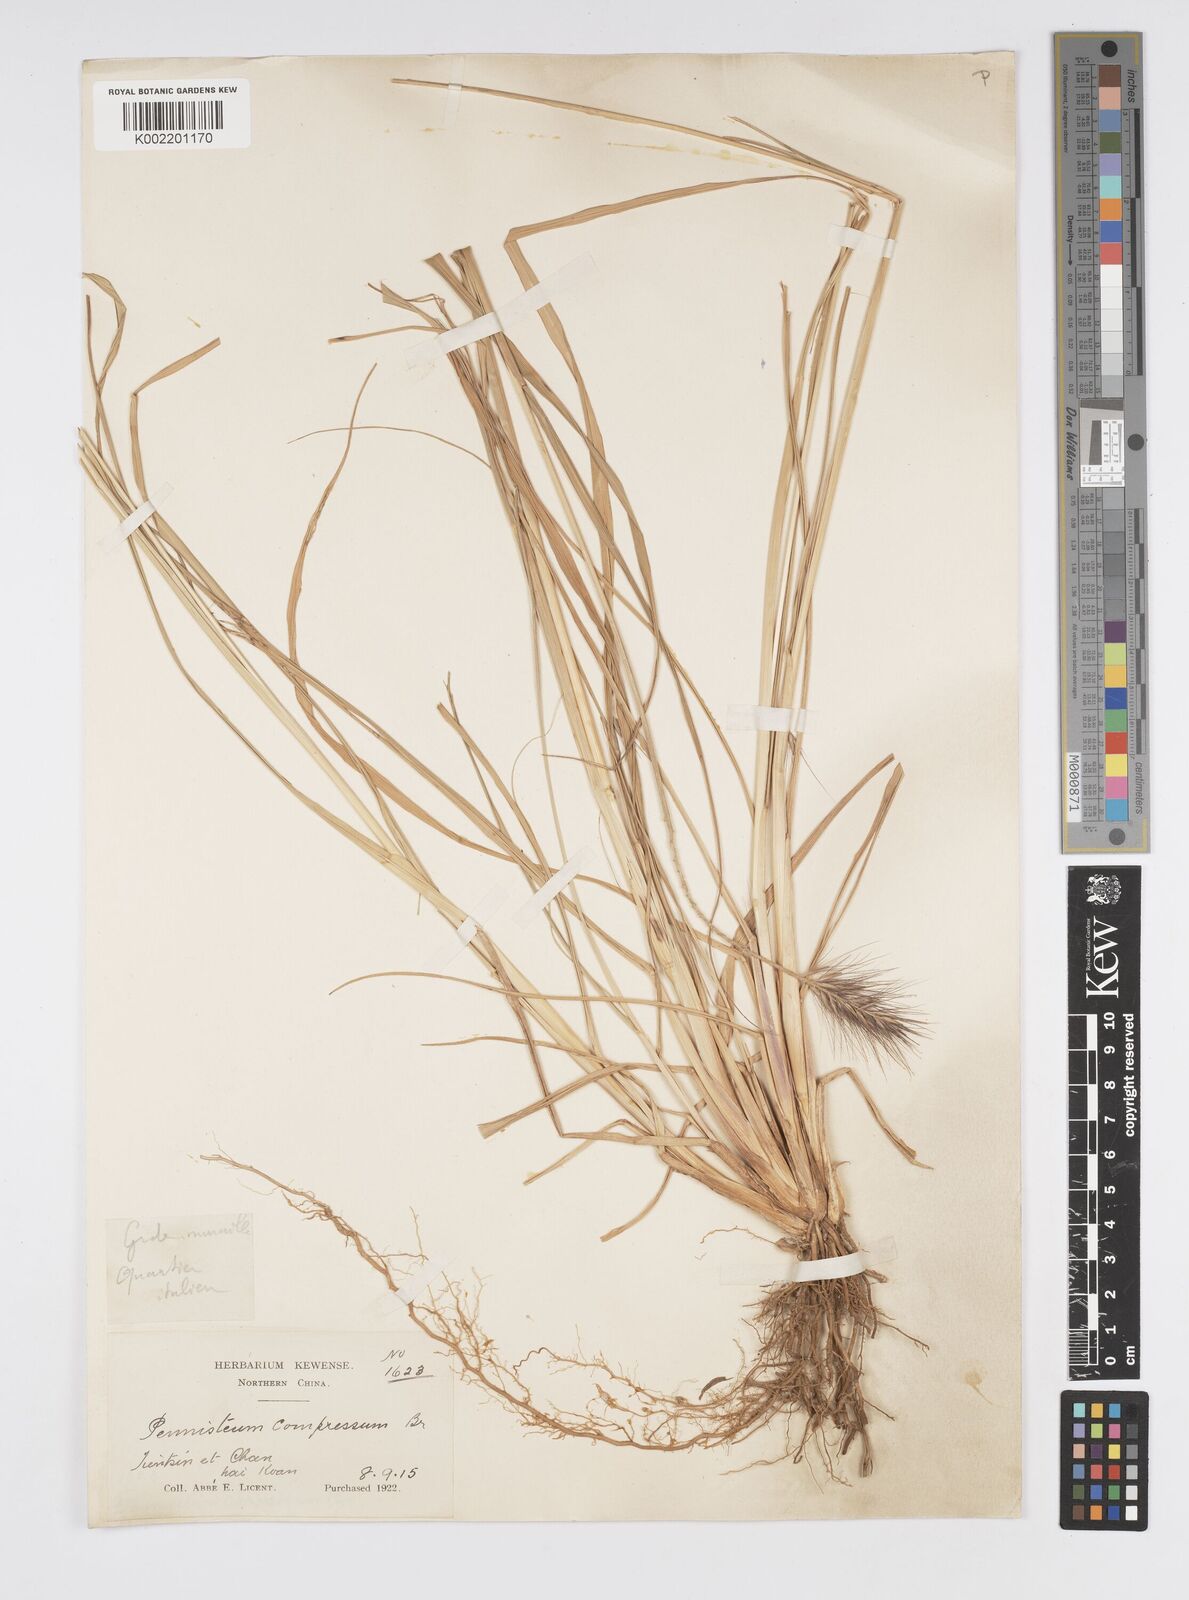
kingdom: Plantae
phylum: Tracheophyta
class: Liliopsida
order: Poales
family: Poaceae
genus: Cenchrus
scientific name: Cenchrus alopecuroides
